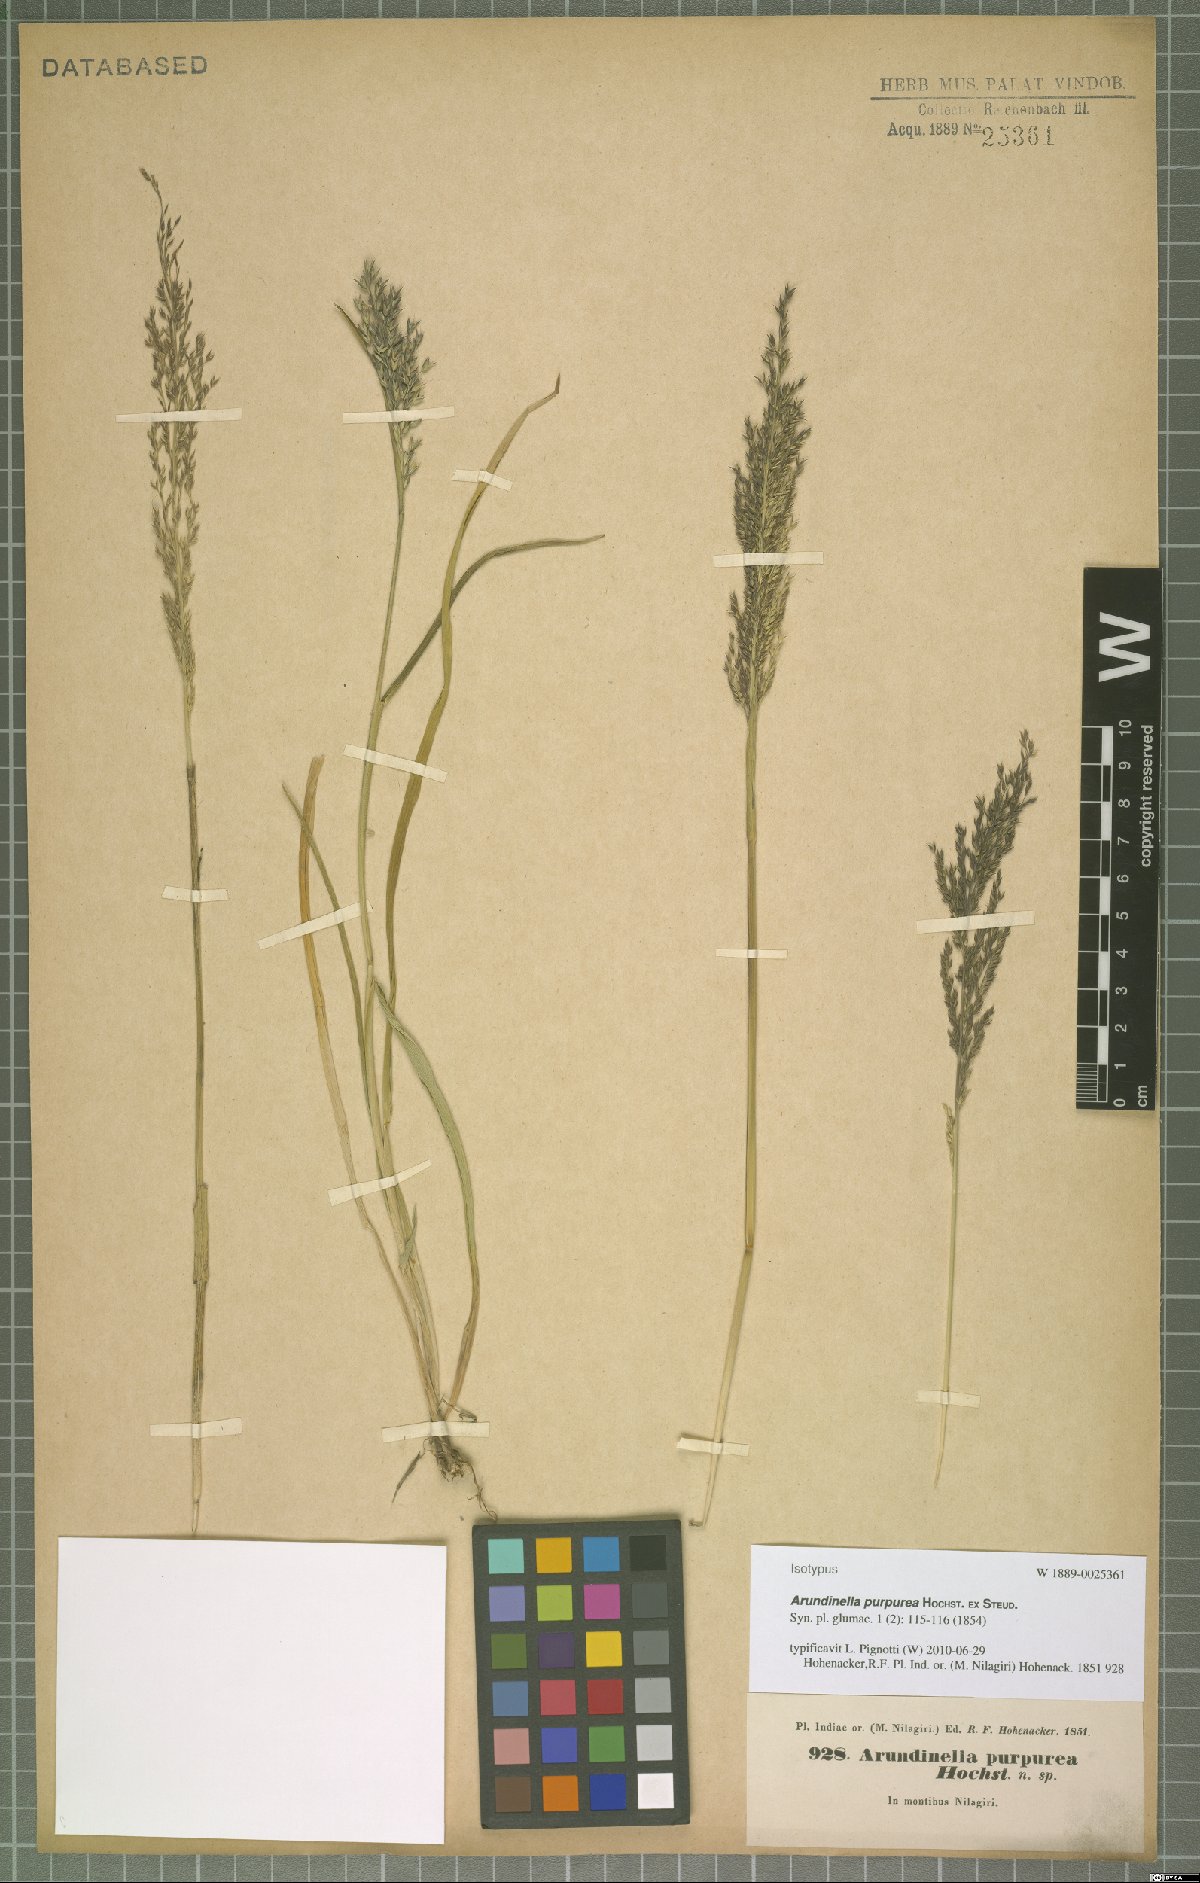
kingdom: Plantae
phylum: Tracheophyta
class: Liliopsida
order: Poales
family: Poaceae
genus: Arundinella
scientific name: Arundinella fuscata
